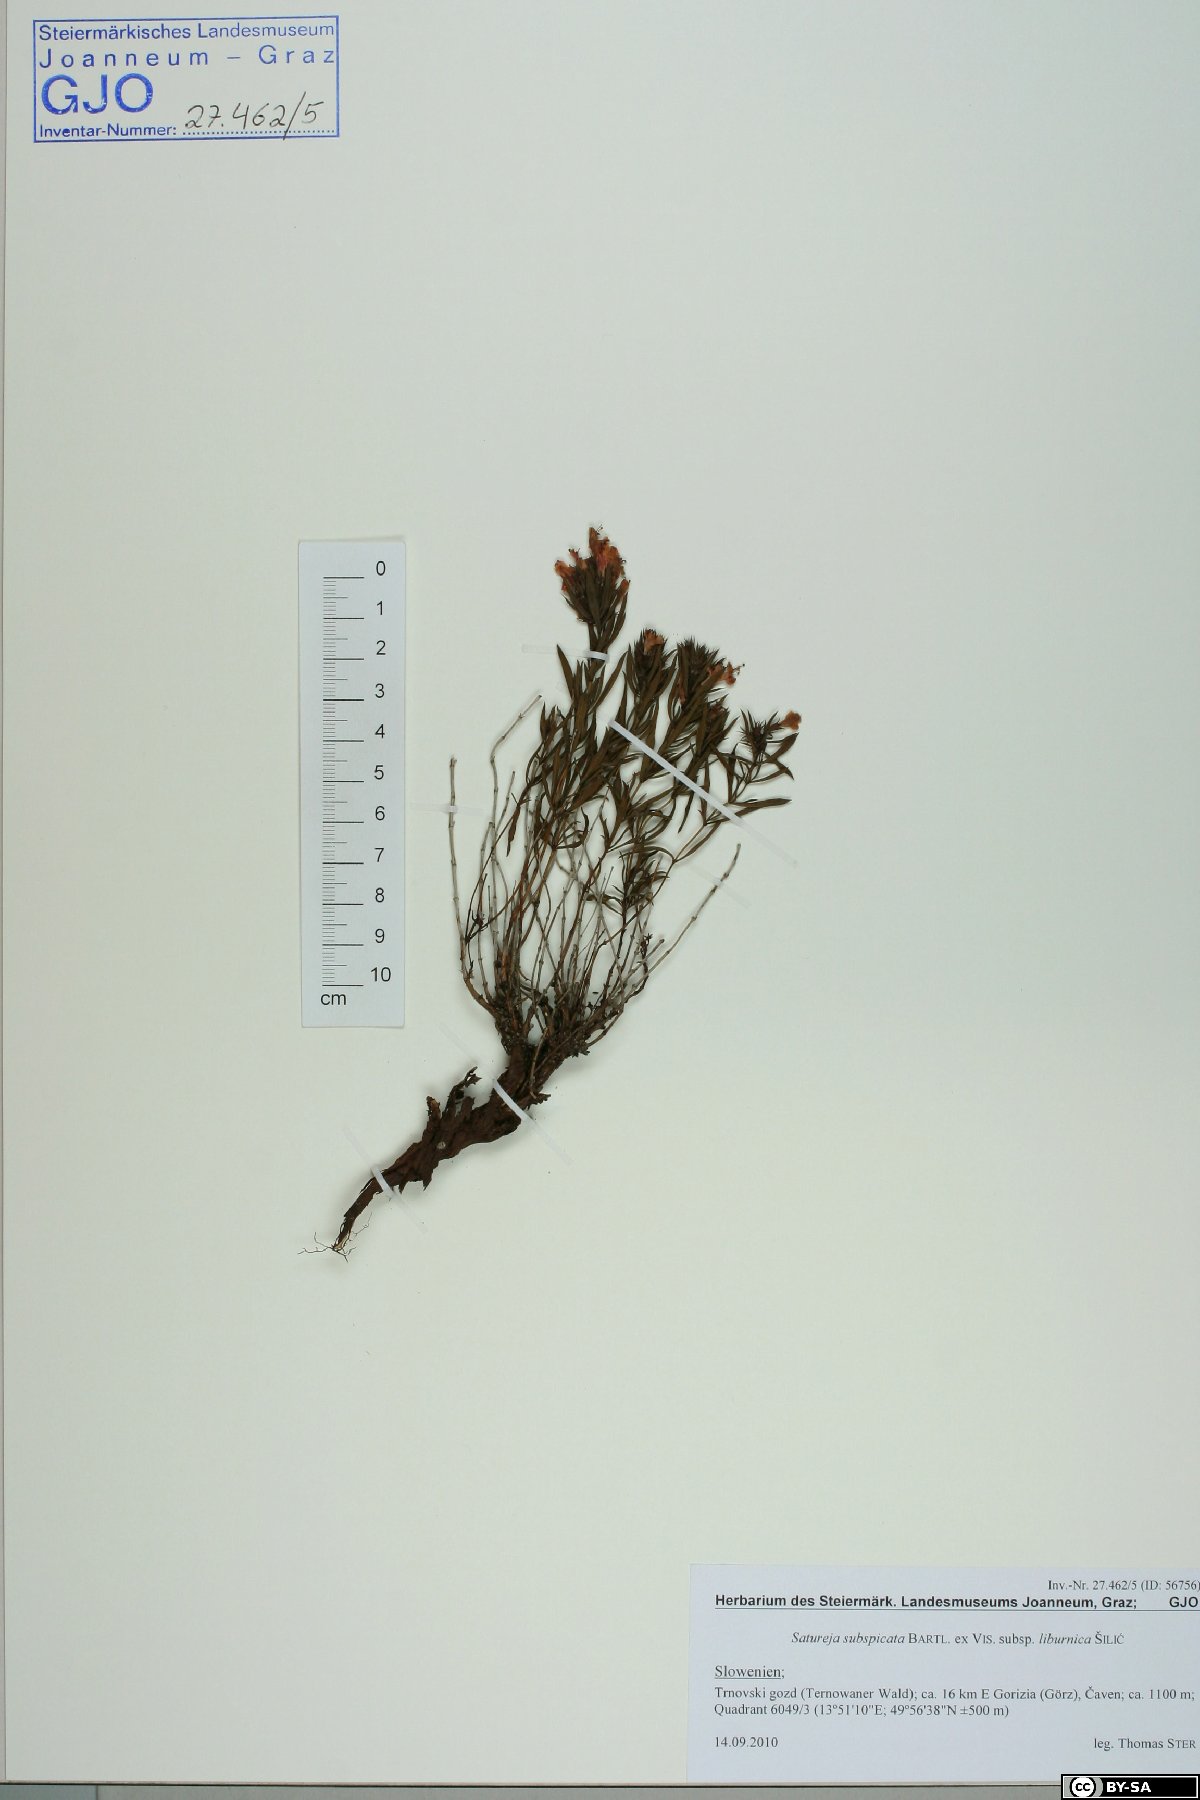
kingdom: Plantae
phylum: Tracheophyta
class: Magnoliopsida
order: Lamiales
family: Lamiaceae
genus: Satureja
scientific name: Satureja subspicata
